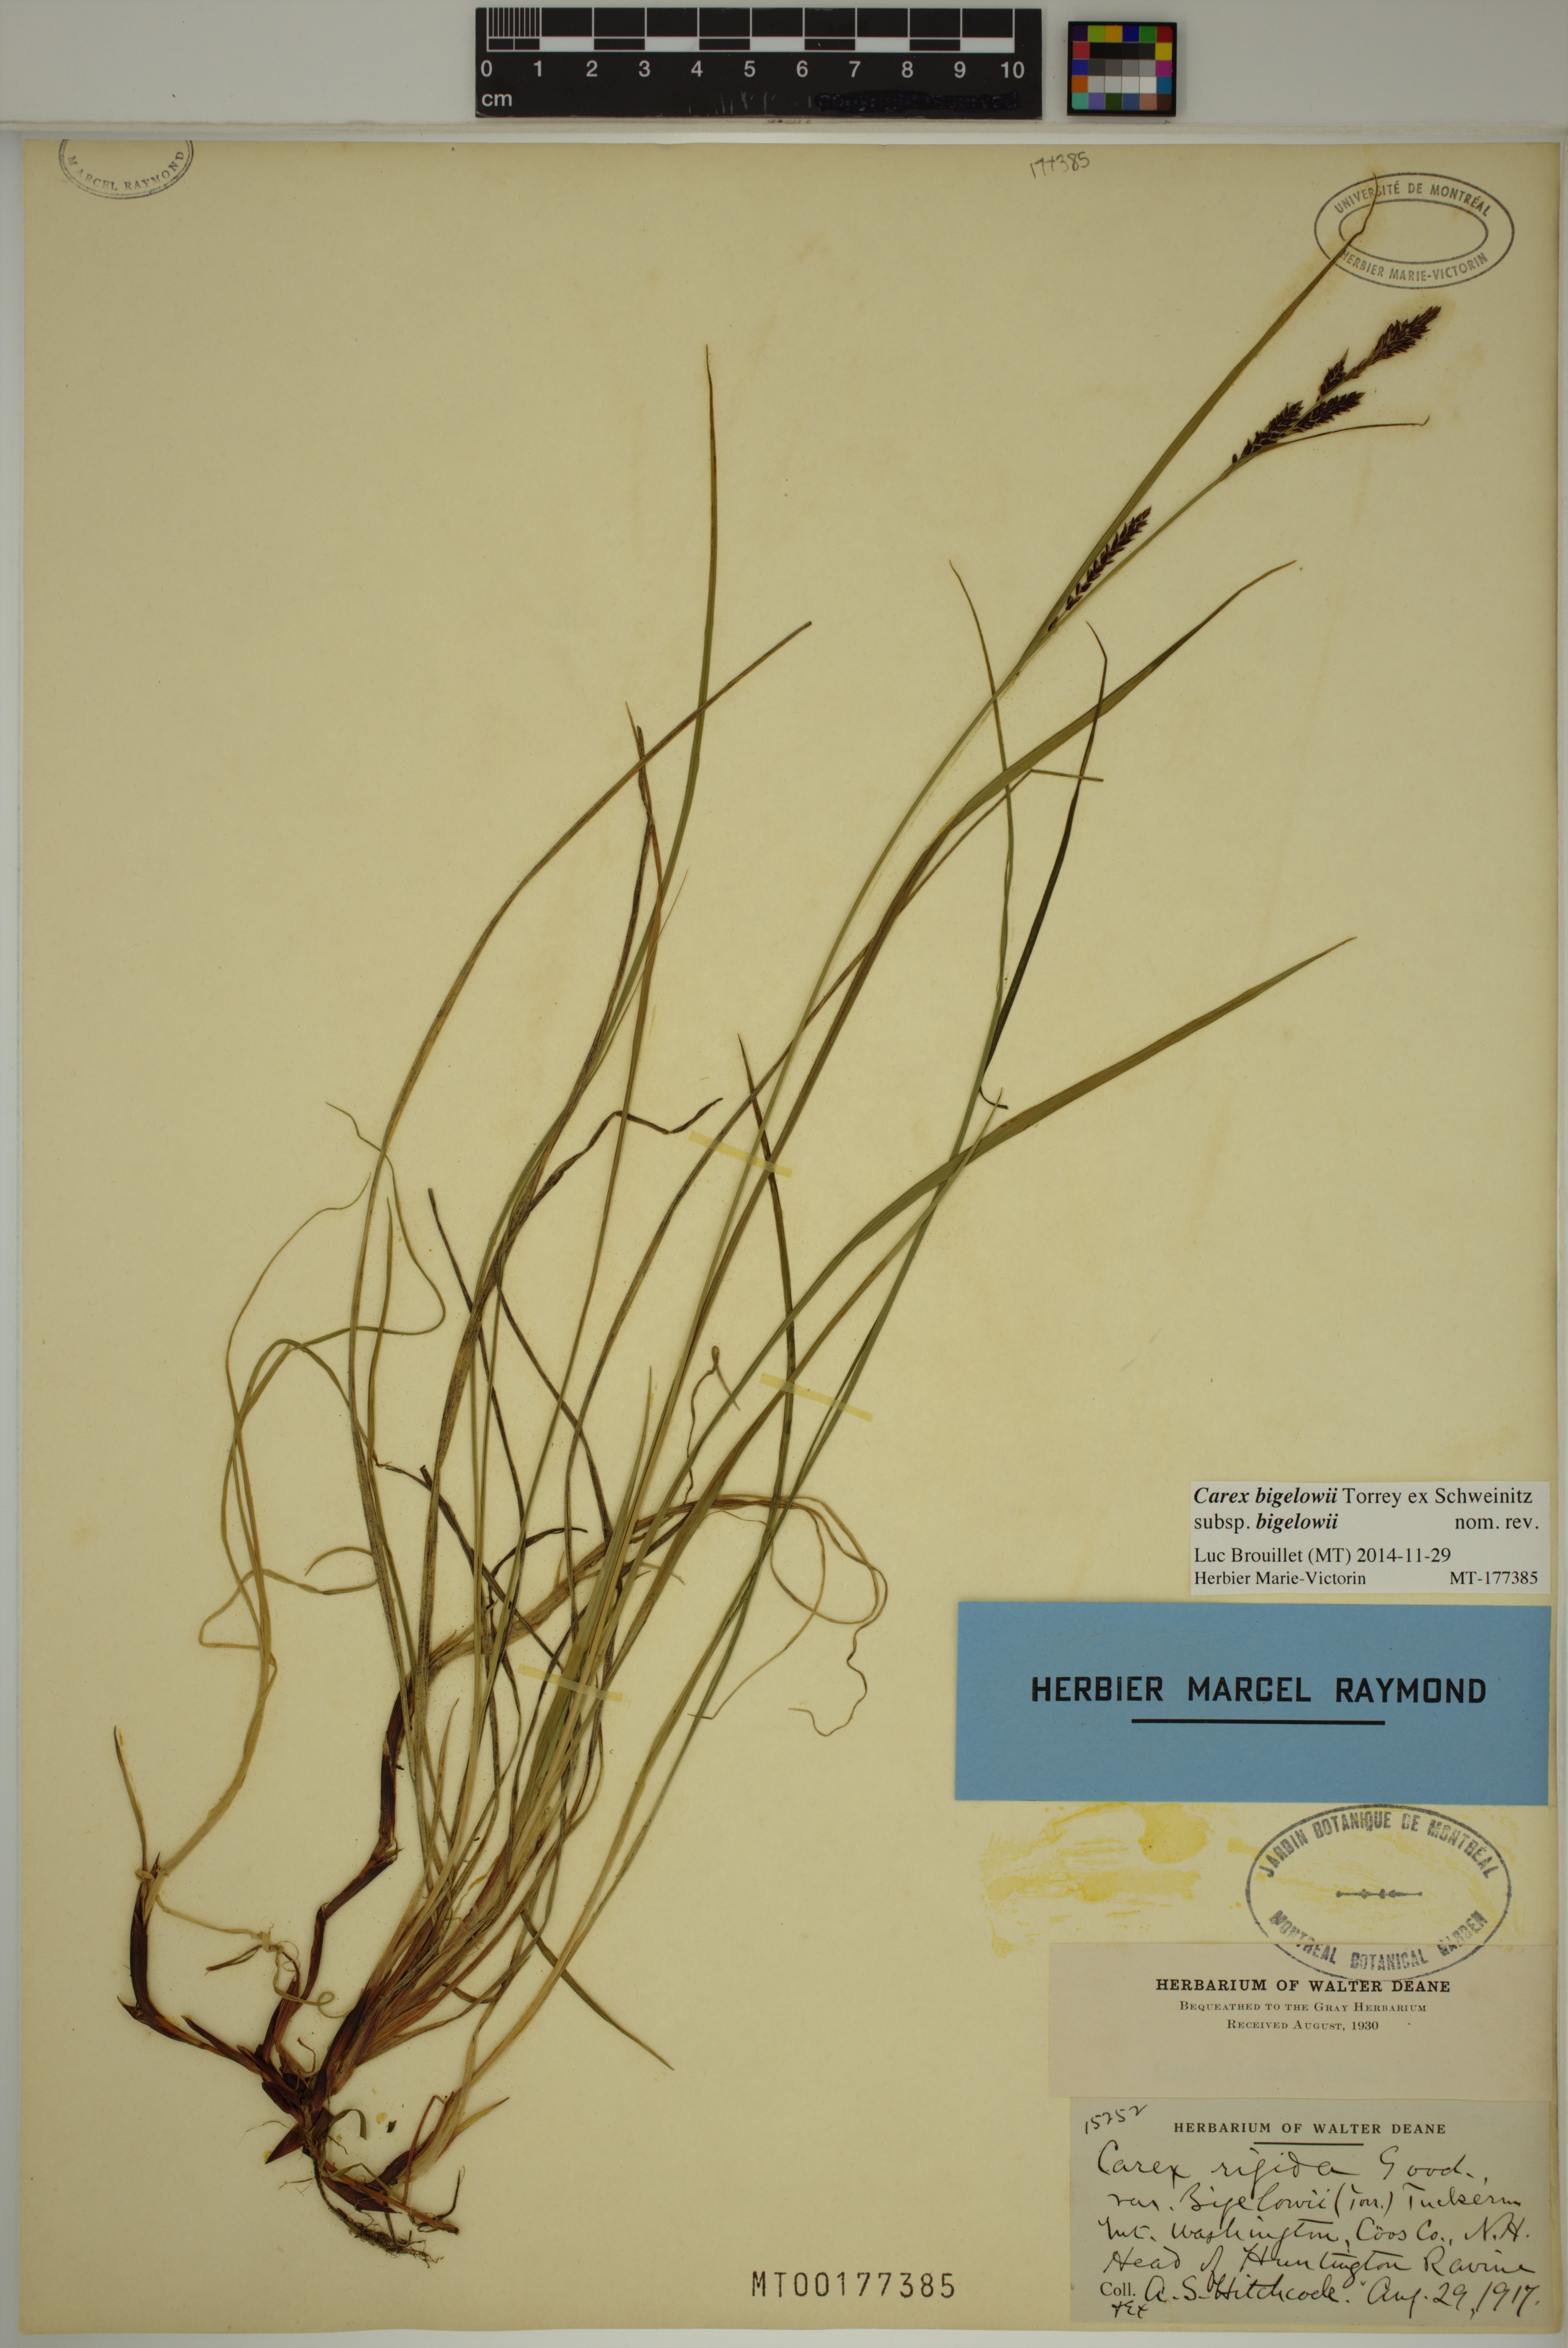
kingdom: Plantae
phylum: Tracheophyta
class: Liliopsida
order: Poales
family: Cyperaceae
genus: Carex
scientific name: Carex bigelowii
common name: Stiff sedge
